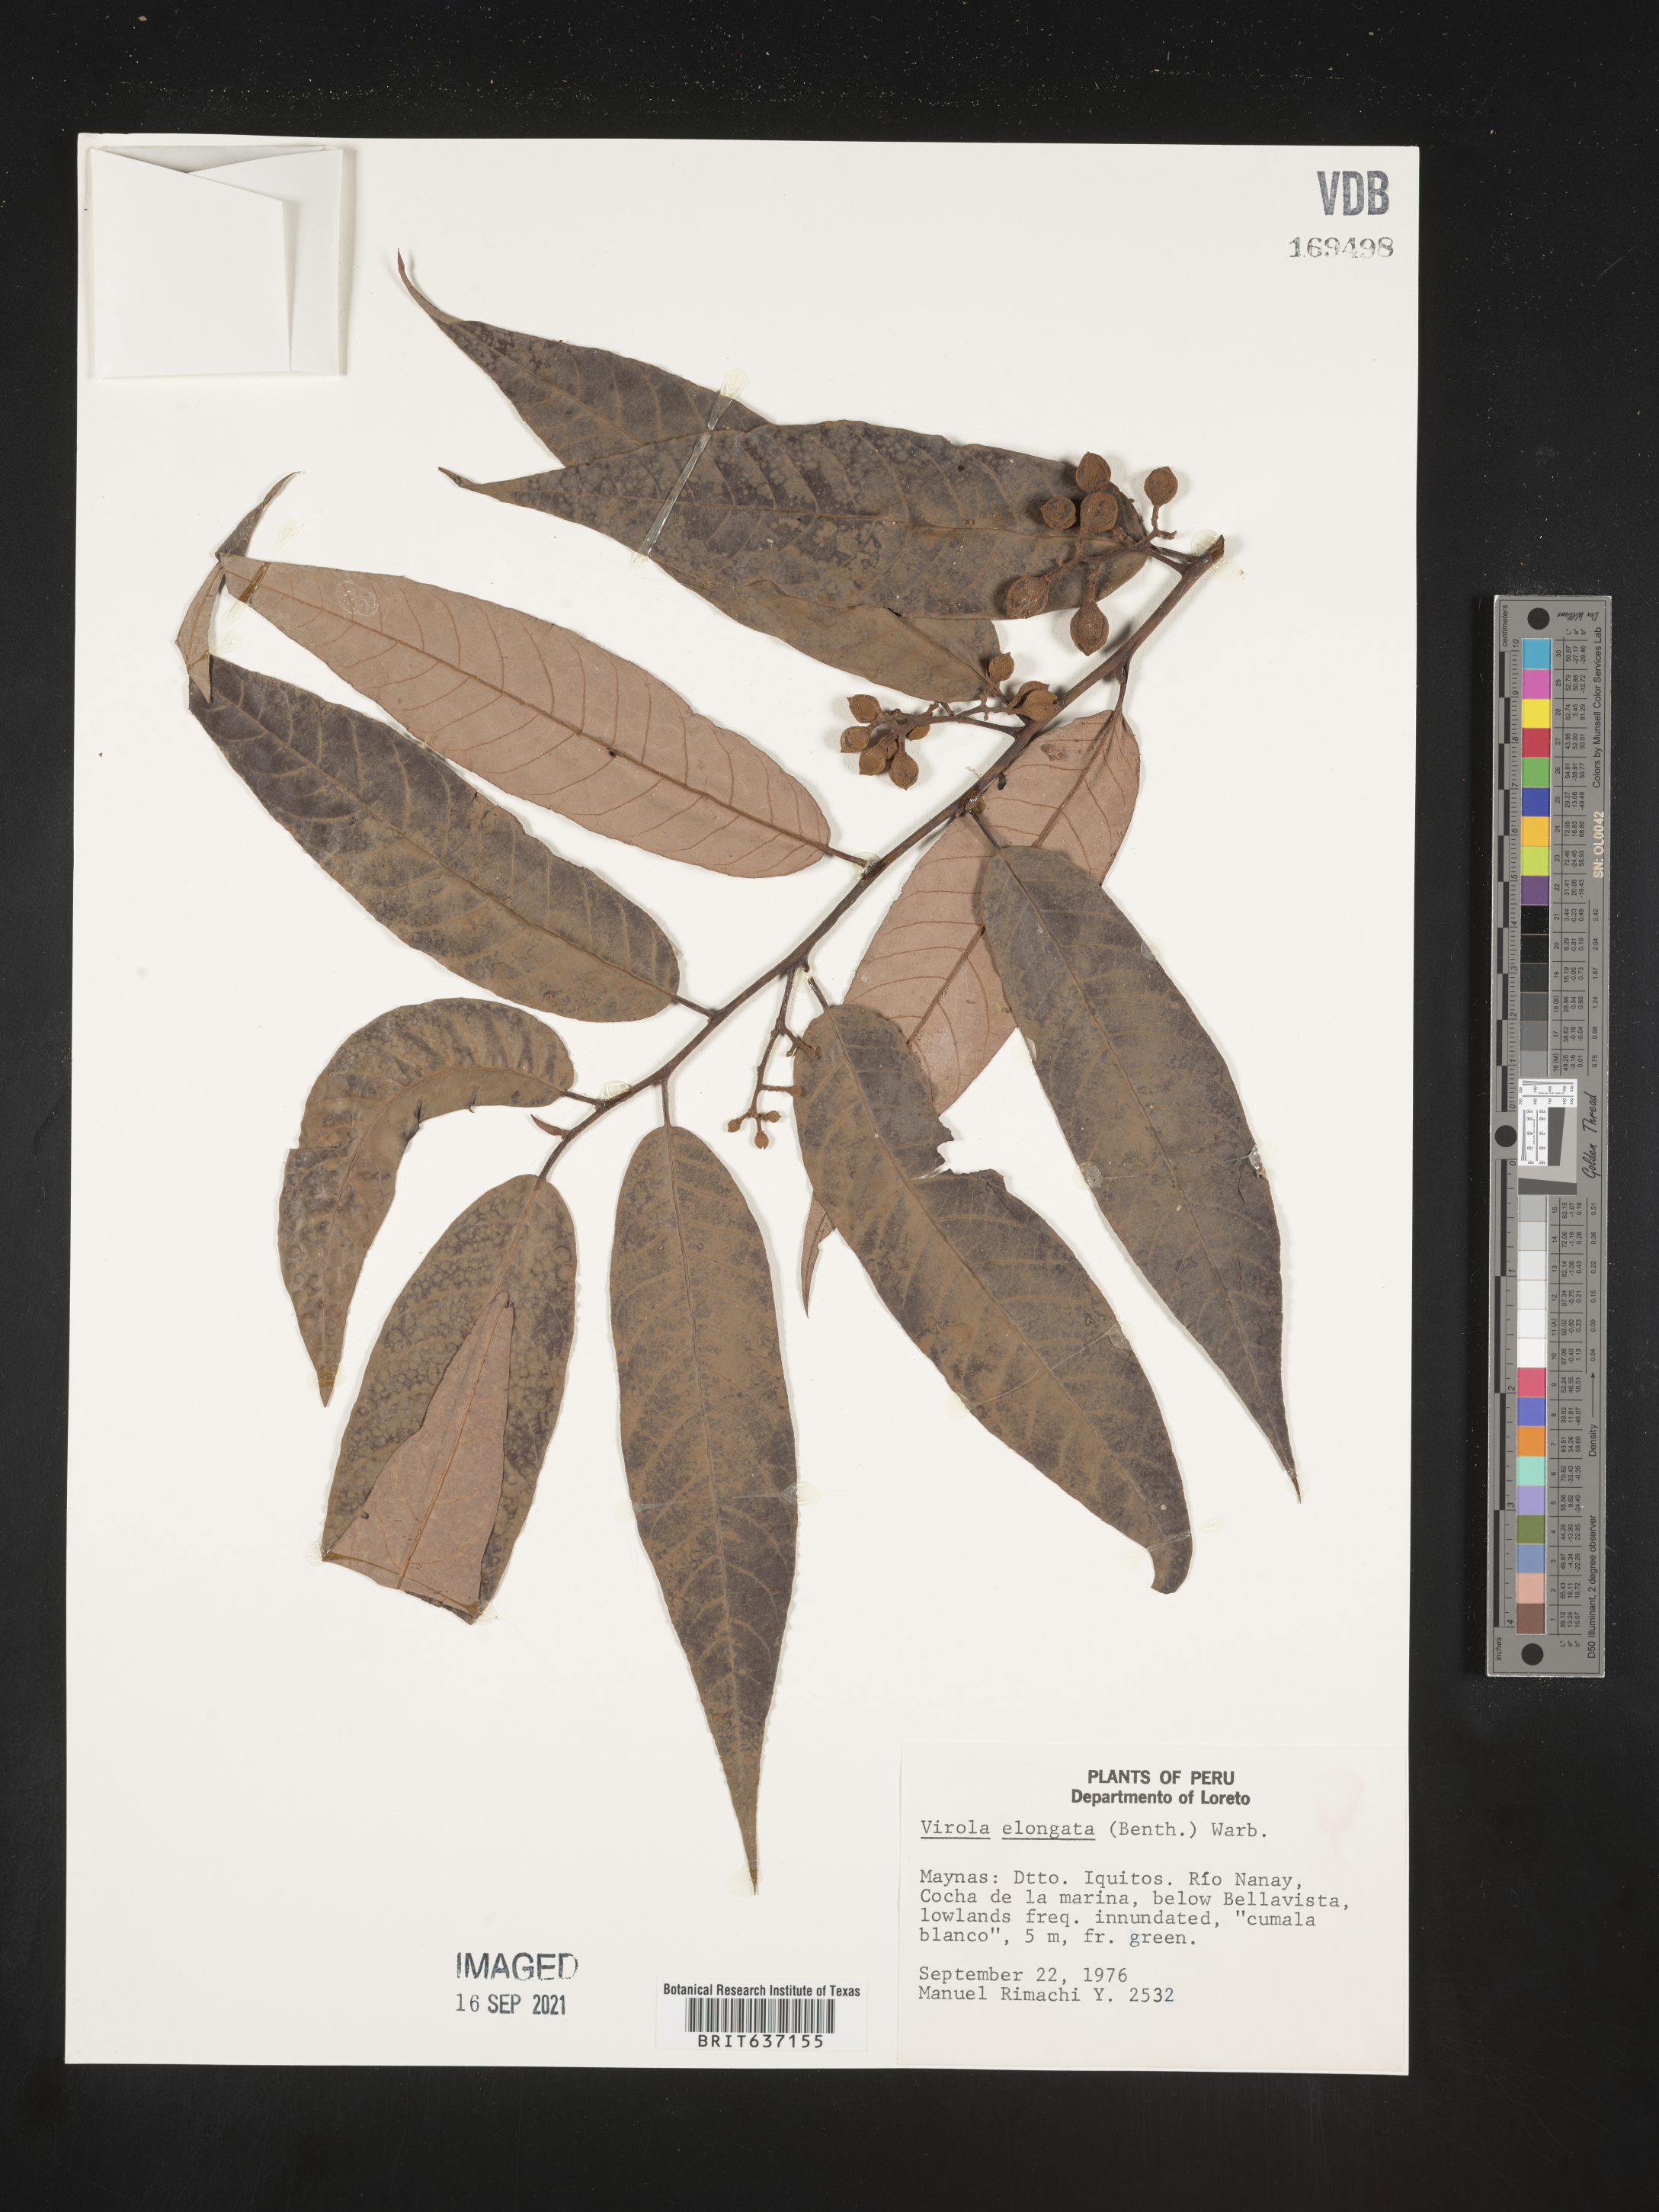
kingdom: Plantae
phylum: Tracheophyta
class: Magnoliopsida
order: Magnoliales
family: Myristicaceae
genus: Virola
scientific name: Virola
